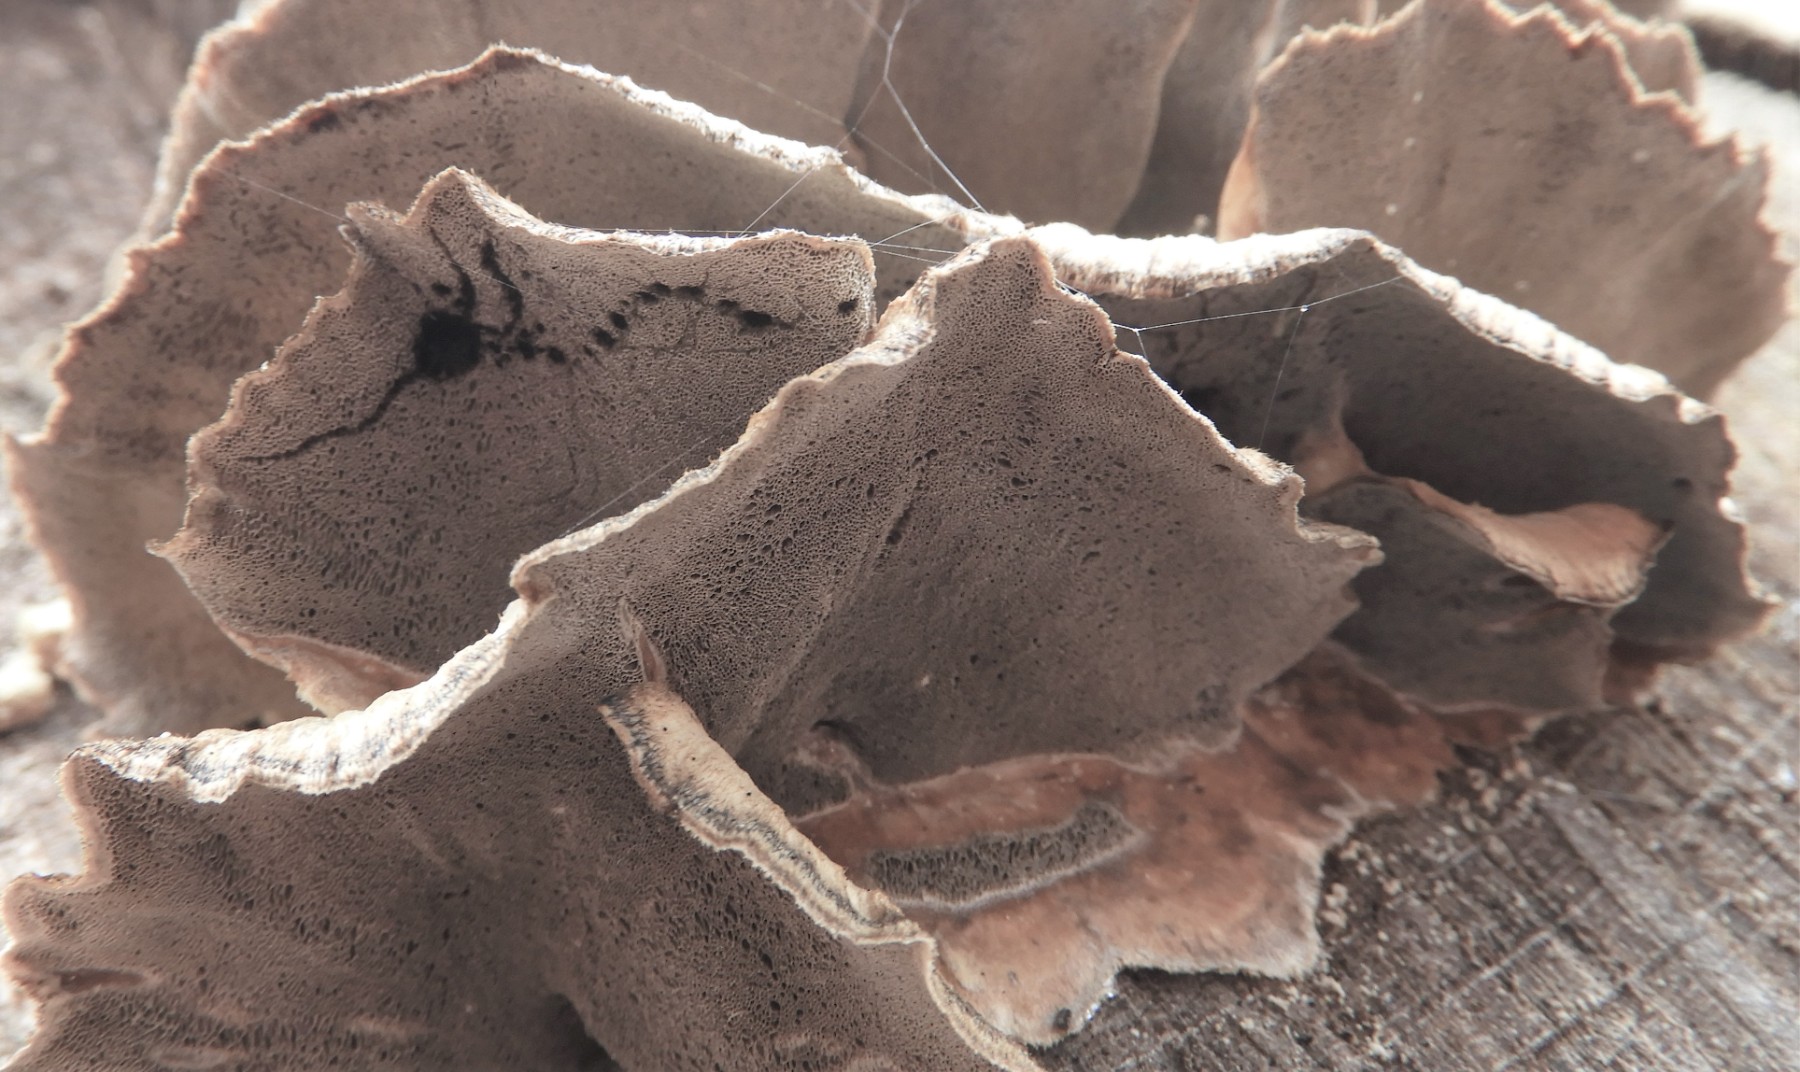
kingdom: Fungi
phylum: Basidiomycota
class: Agaricomycetes
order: Polyporales
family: Phanerochaetaceae
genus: Bjerkandera
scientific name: Bjerkandera adusta
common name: sveden sodporesvamp
